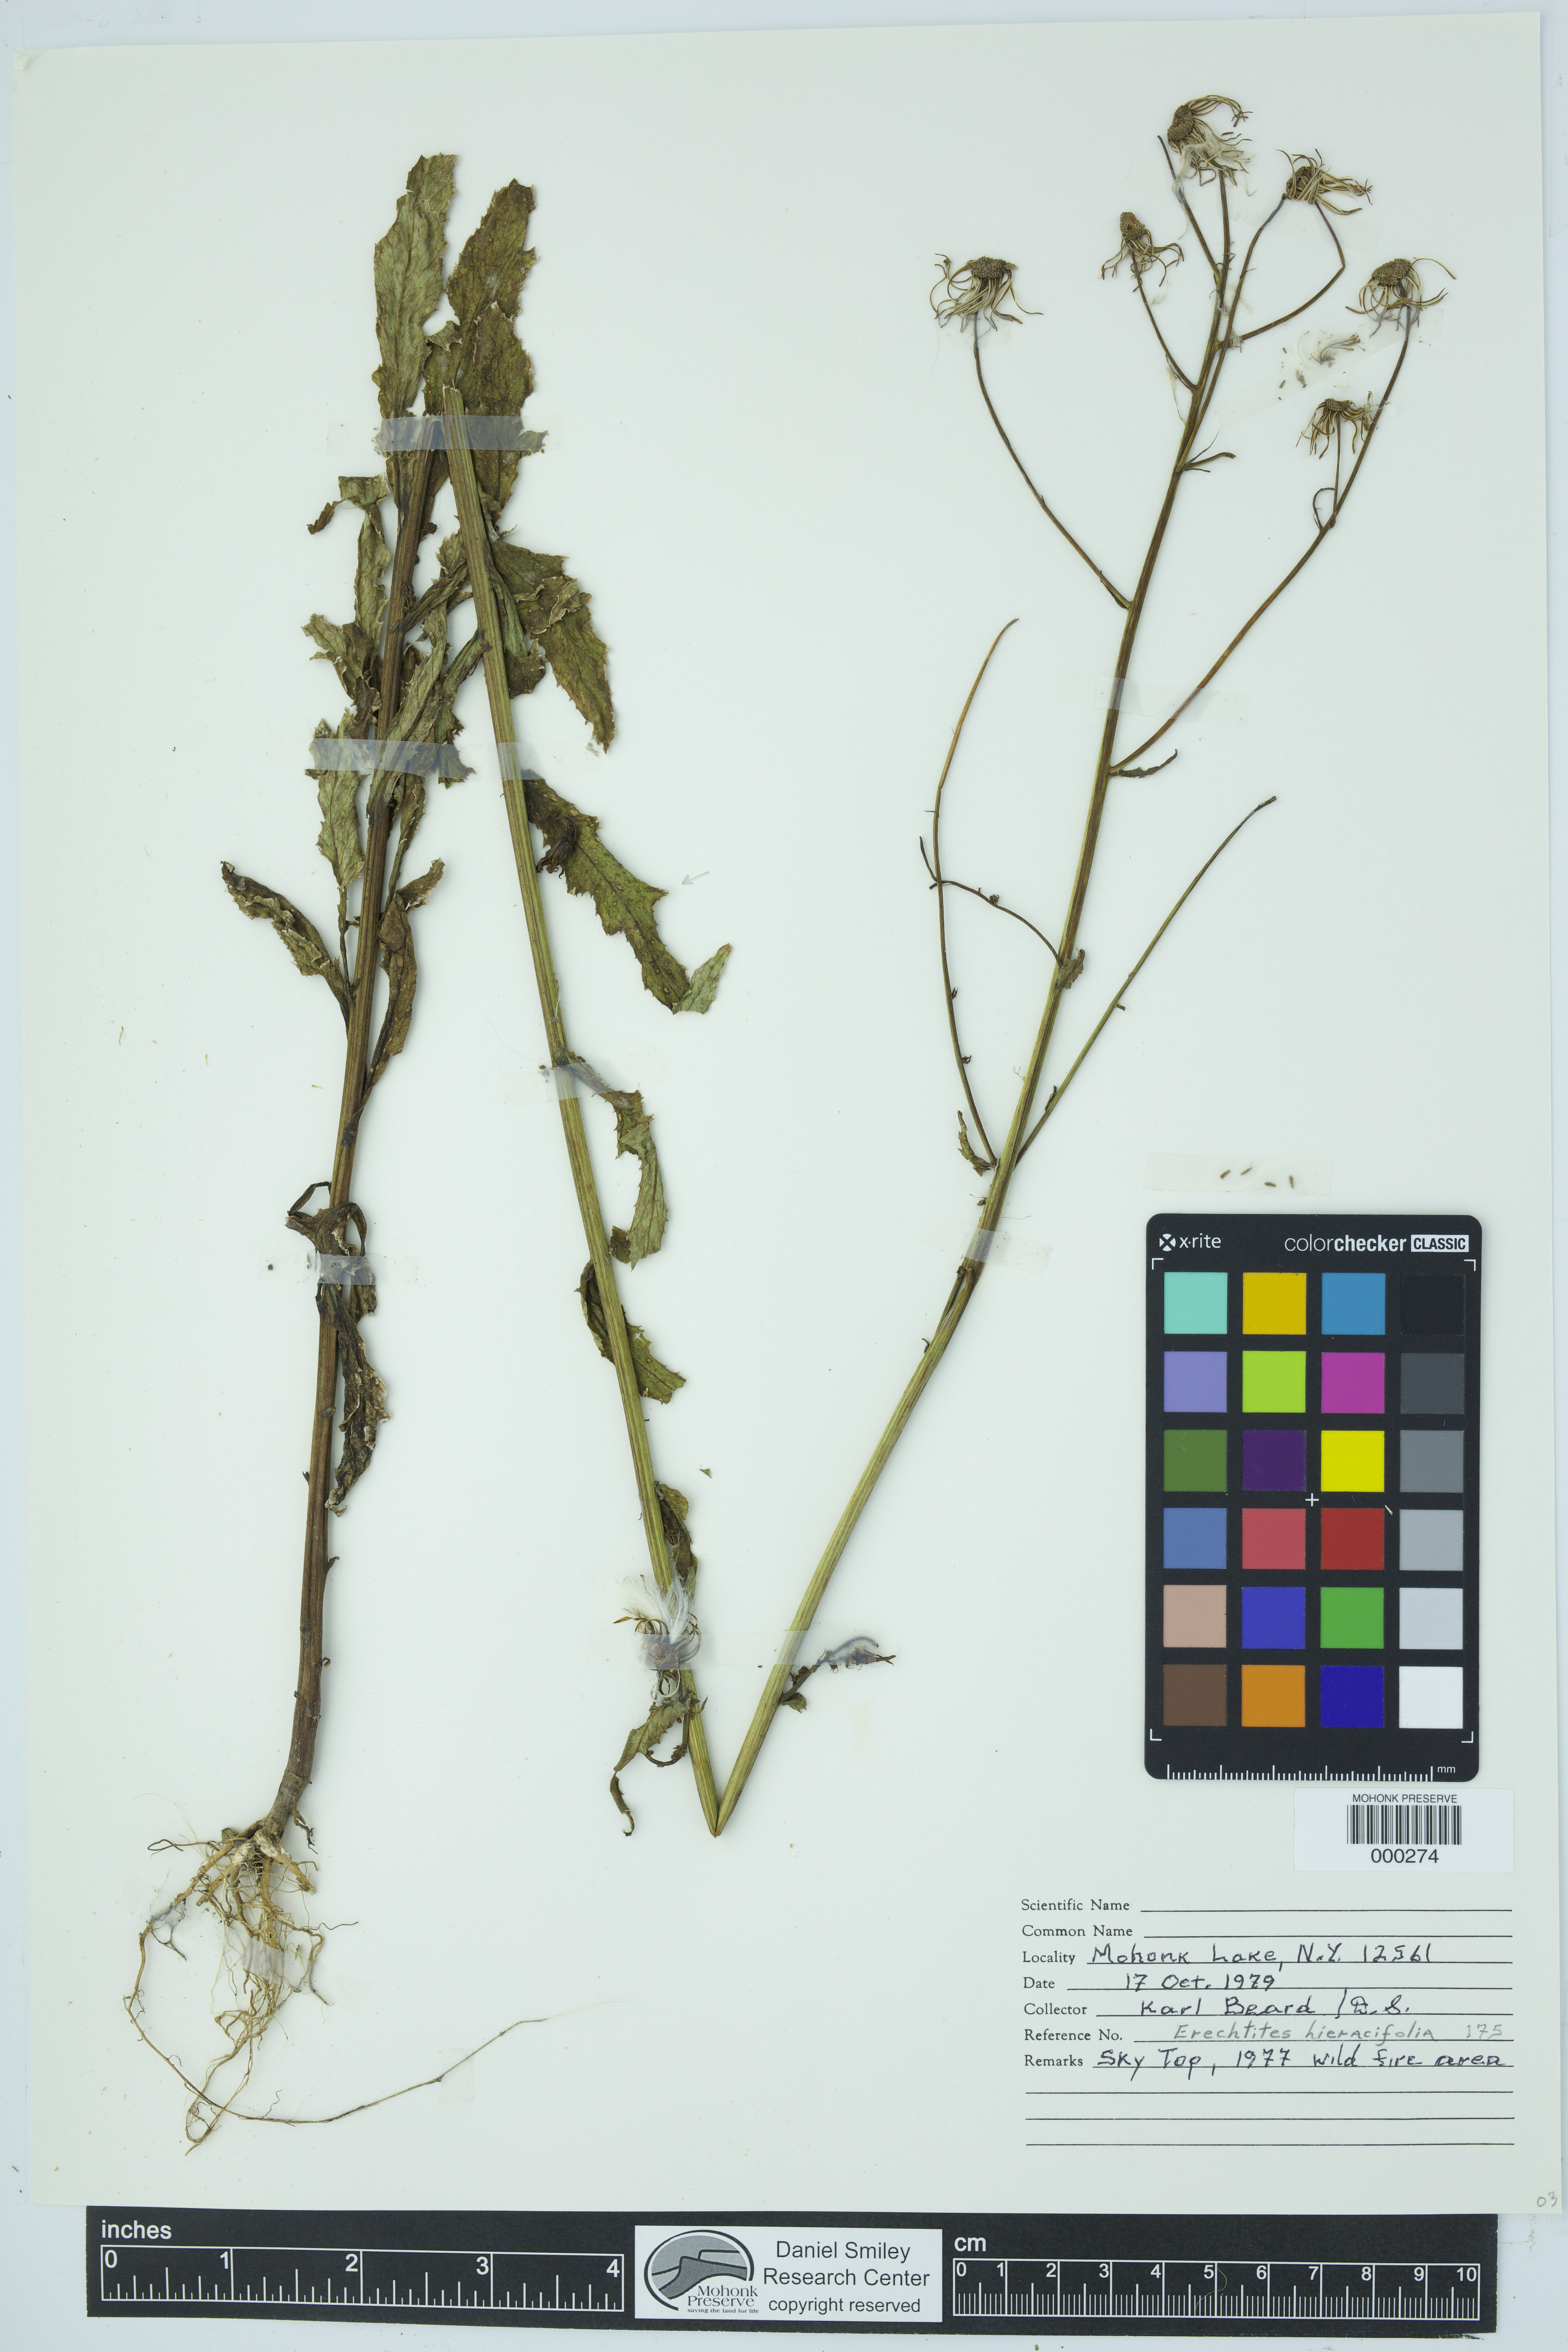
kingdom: Plantae
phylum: Tracheophyta
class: Magnoliopsida
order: Asterales
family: Asteraceae
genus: Erechtites
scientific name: Erechtites hieraciifolius
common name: American burnweed
